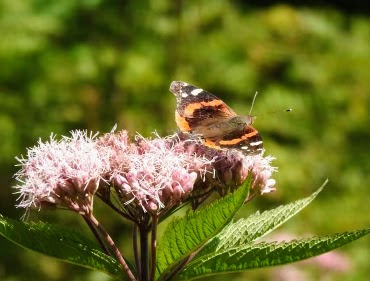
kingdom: Animalia
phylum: Arthropoda
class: Insecta
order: Lepidoptera
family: Nymphalidae
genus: Vanessa
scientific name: Vanessa atalanta
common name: Red Admiral
